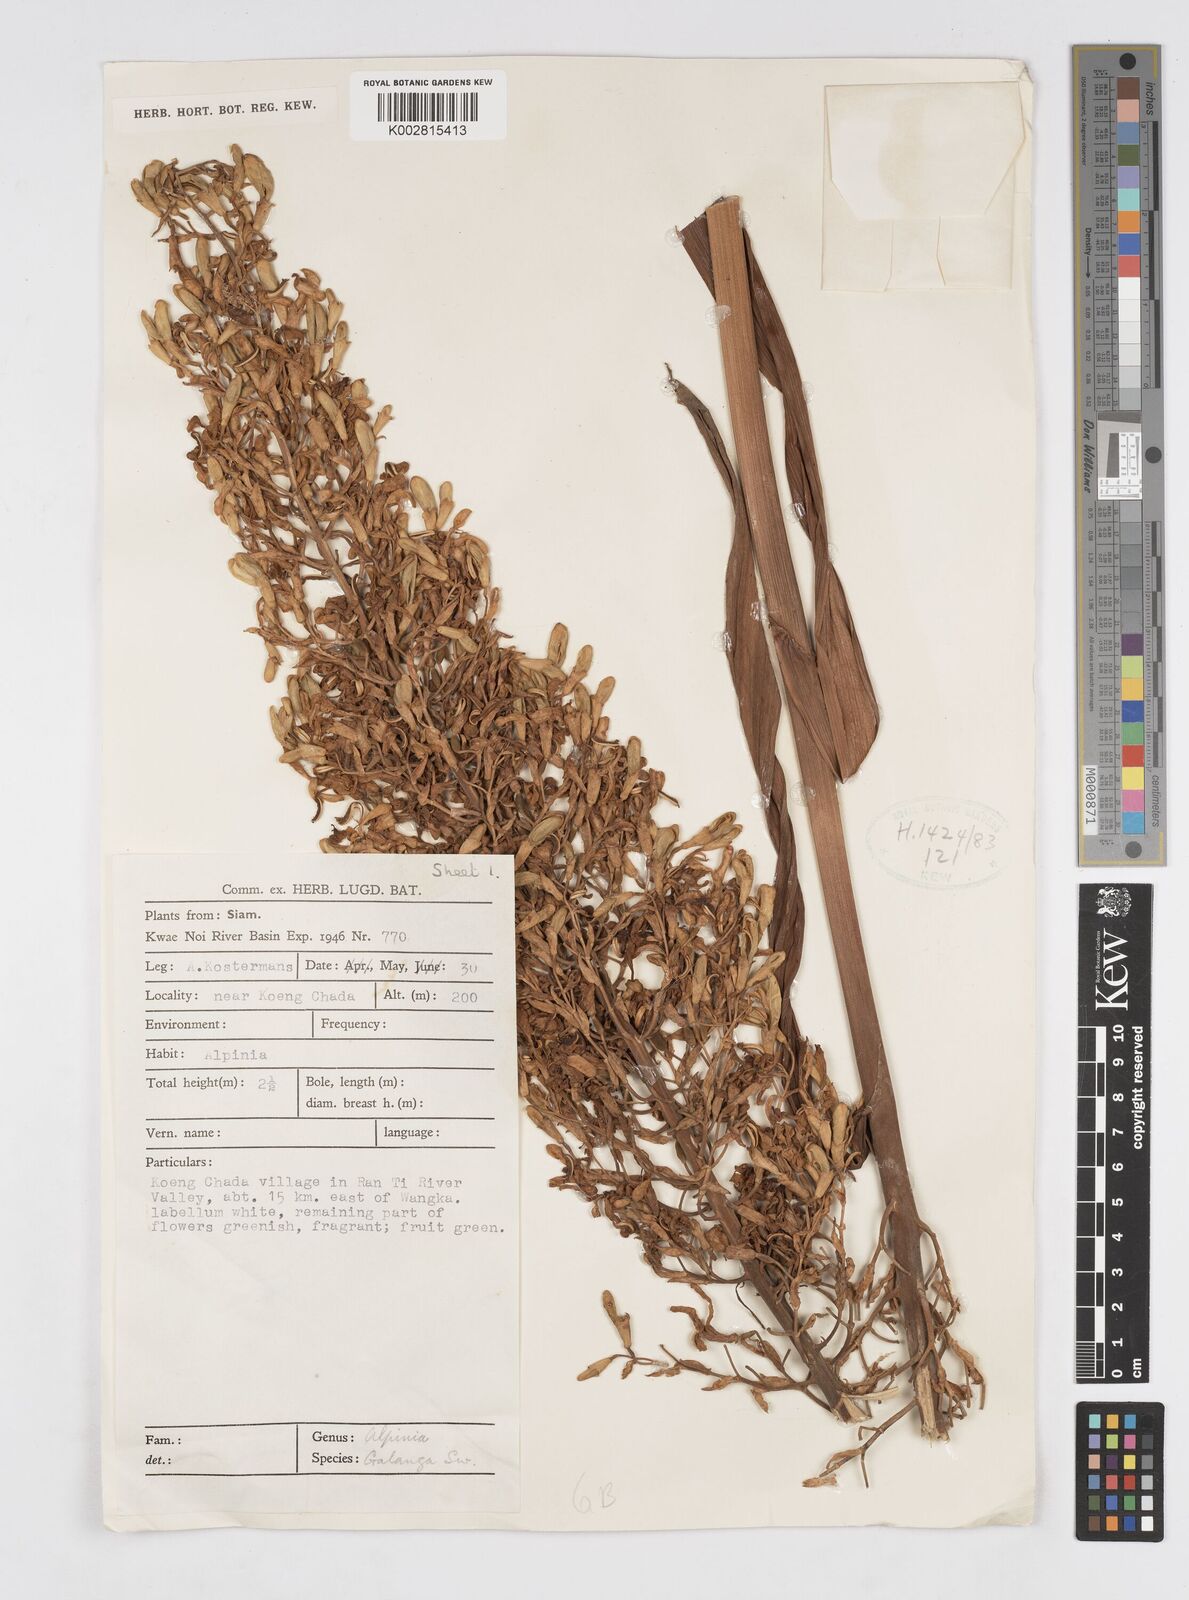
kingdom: Plantae
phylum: Tracheophyta
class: Liliopsida
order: Zingiberales
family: Zingiberaceae
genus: Alpinia
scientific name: Alpinia galanga
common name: Siamese-ginger
